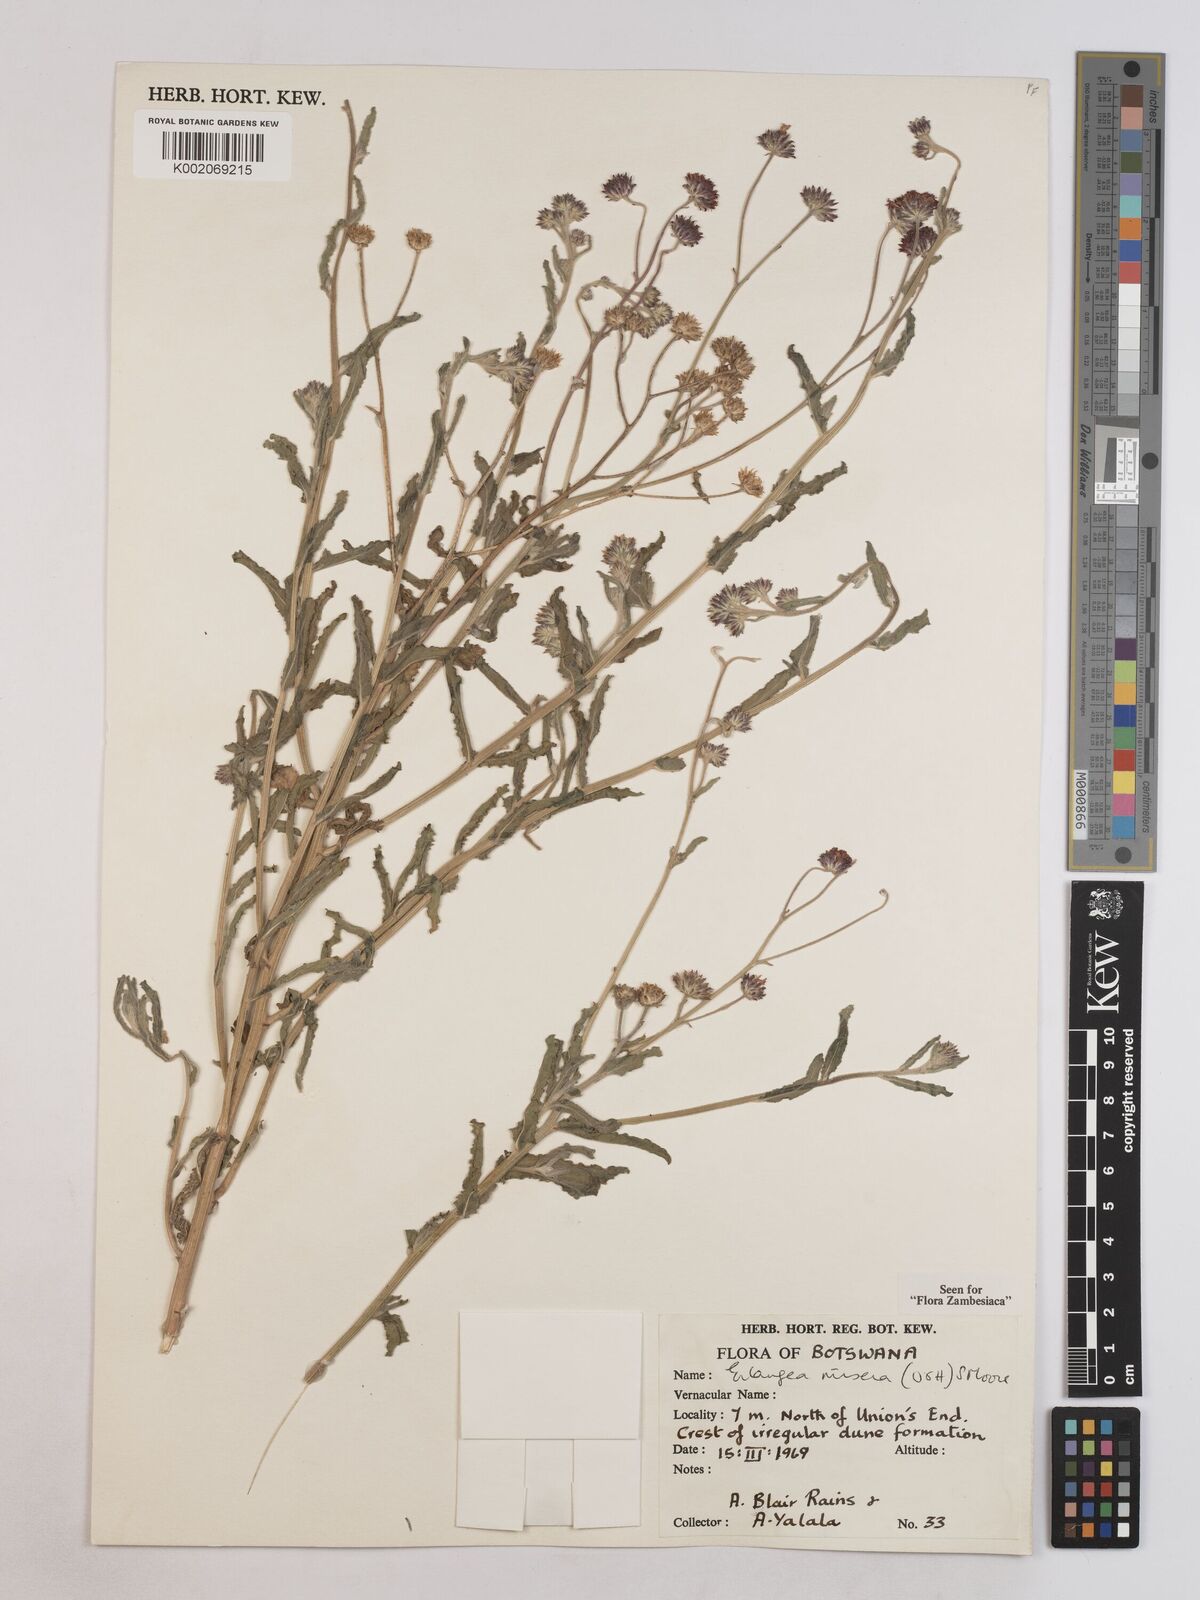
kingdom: Plantae
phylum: Tracheophyta
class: Magnoliopsida
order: Asterales
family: Asteraceae
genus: Erlangea
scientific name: Erlangea misera
